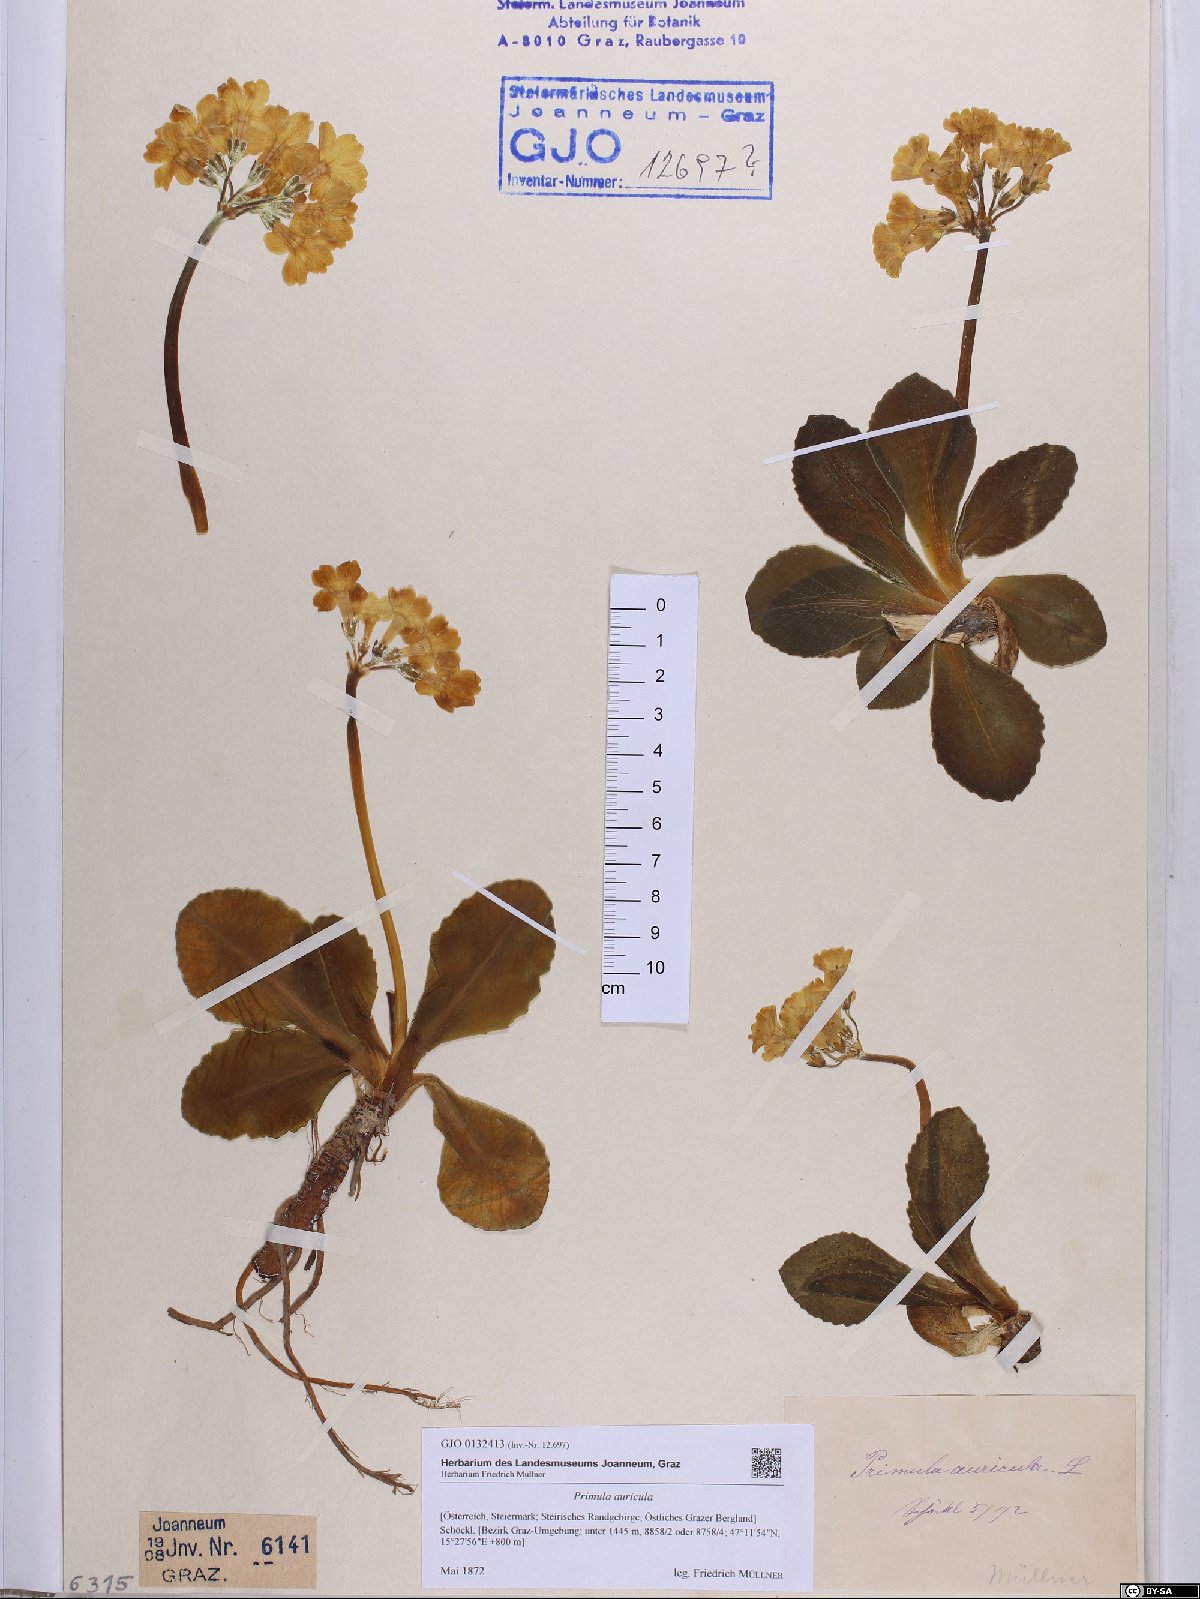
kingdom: Plantae
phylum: Tracheophyta
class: Magnoliopsida
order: Ericales
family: Primulaceae
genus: Primula
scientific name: Primula auricula
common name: Auricula
